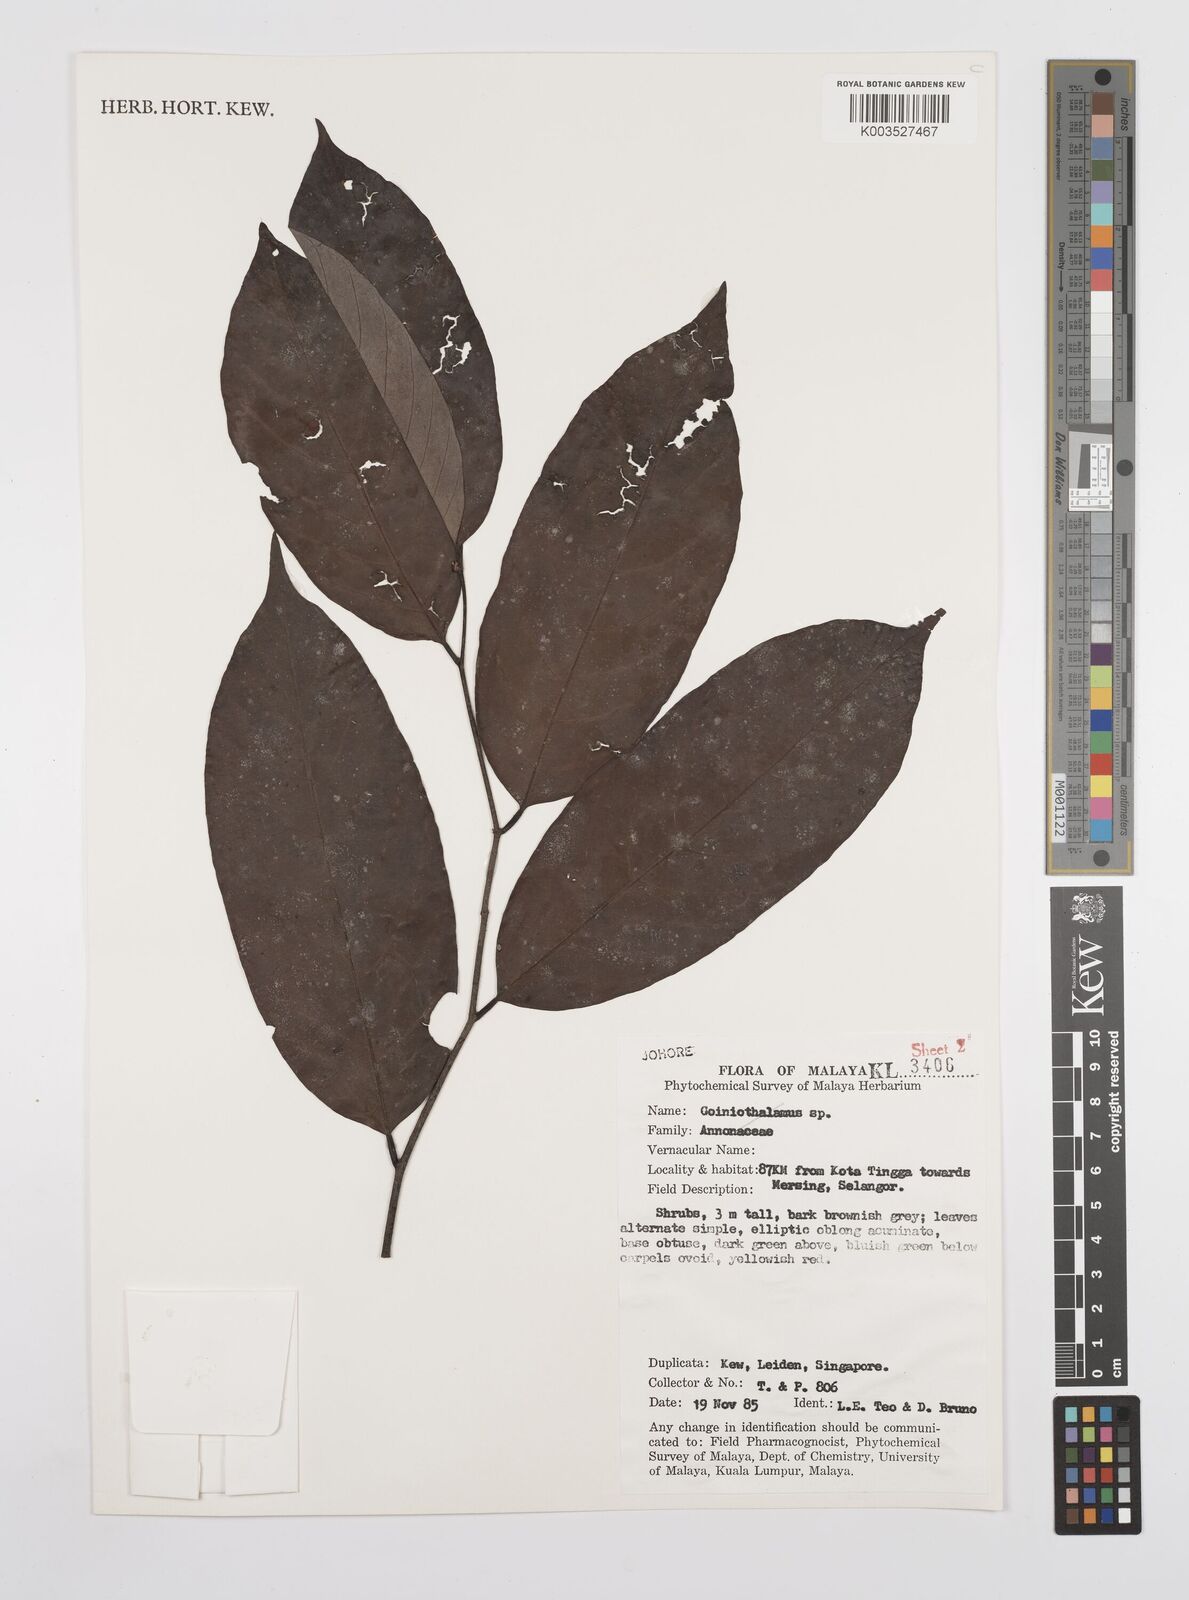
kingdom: Plantae
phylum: Tracheophyta
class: Magnoliopsida
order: Magnoliales
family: Annonaceae
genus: Desmos
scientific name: Desmos
